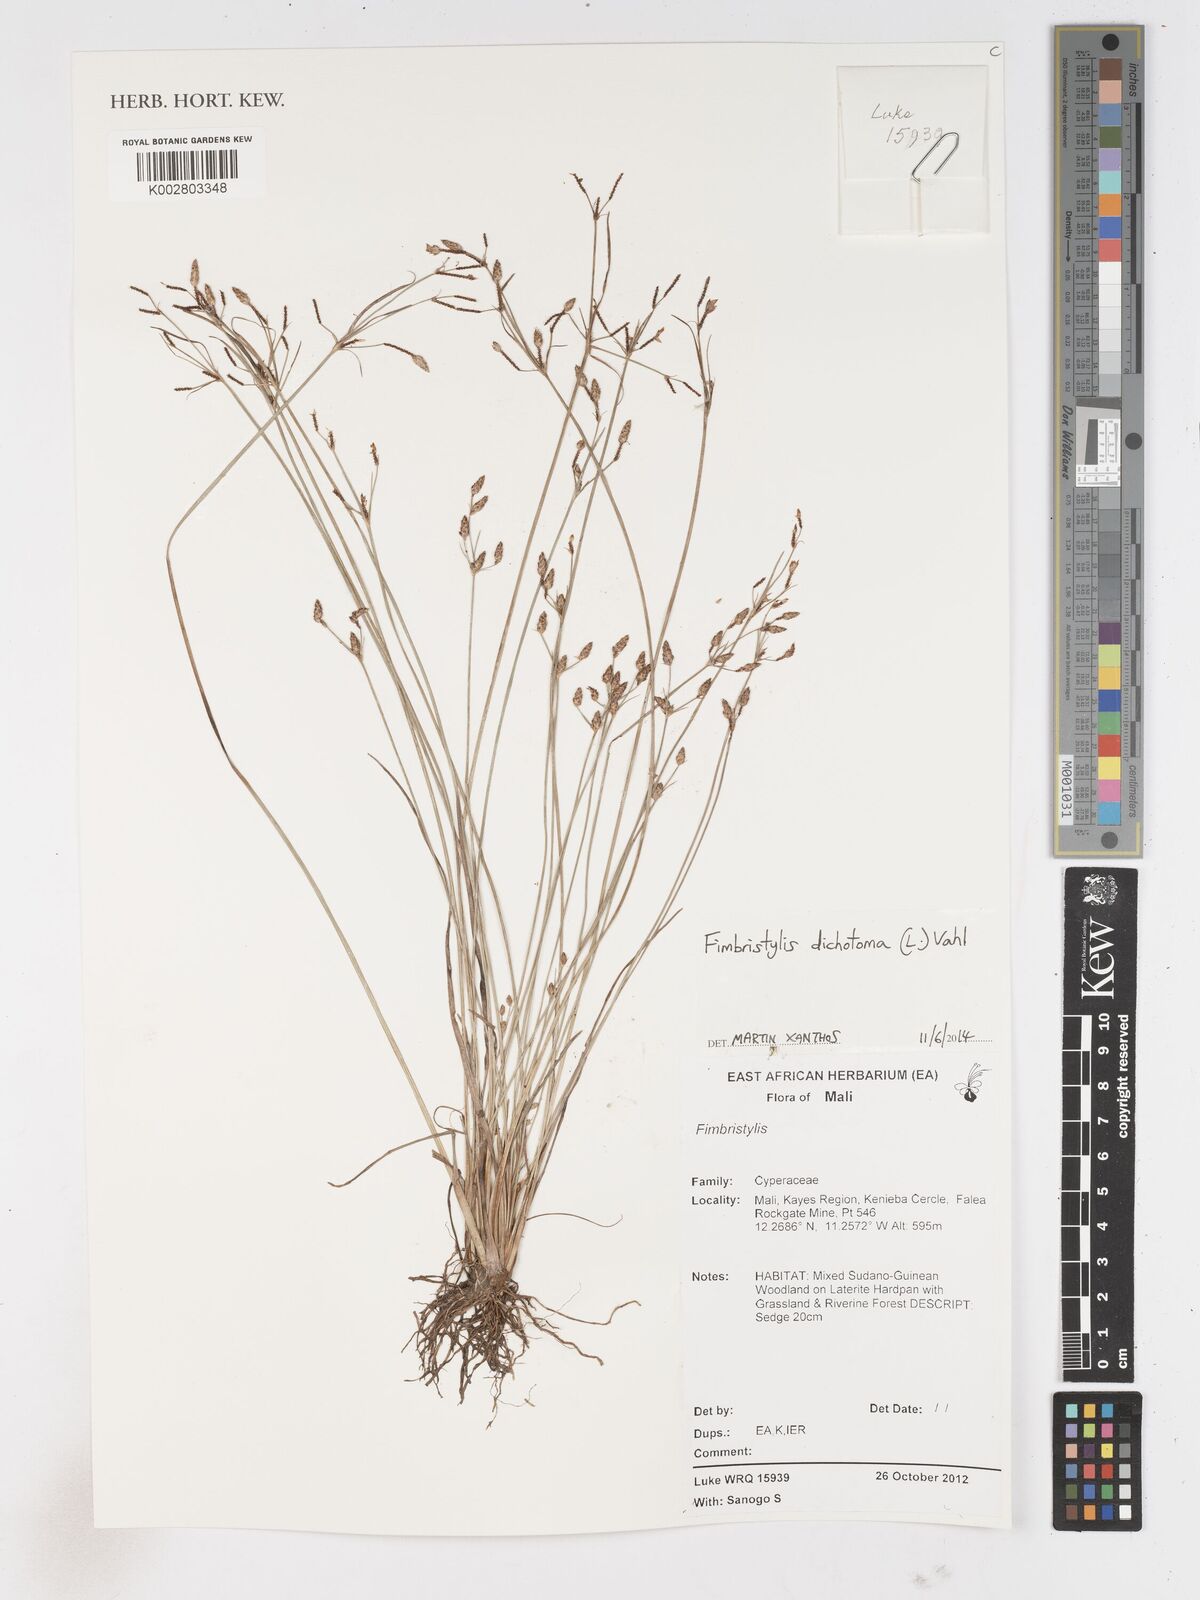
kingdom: Plantae
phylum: Tracheophyta
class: Liliopsida
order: Poales
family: Cyperaceae
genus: Fimbristylis
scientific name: Fimbristylis dichotoma
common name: Forked fimbry
